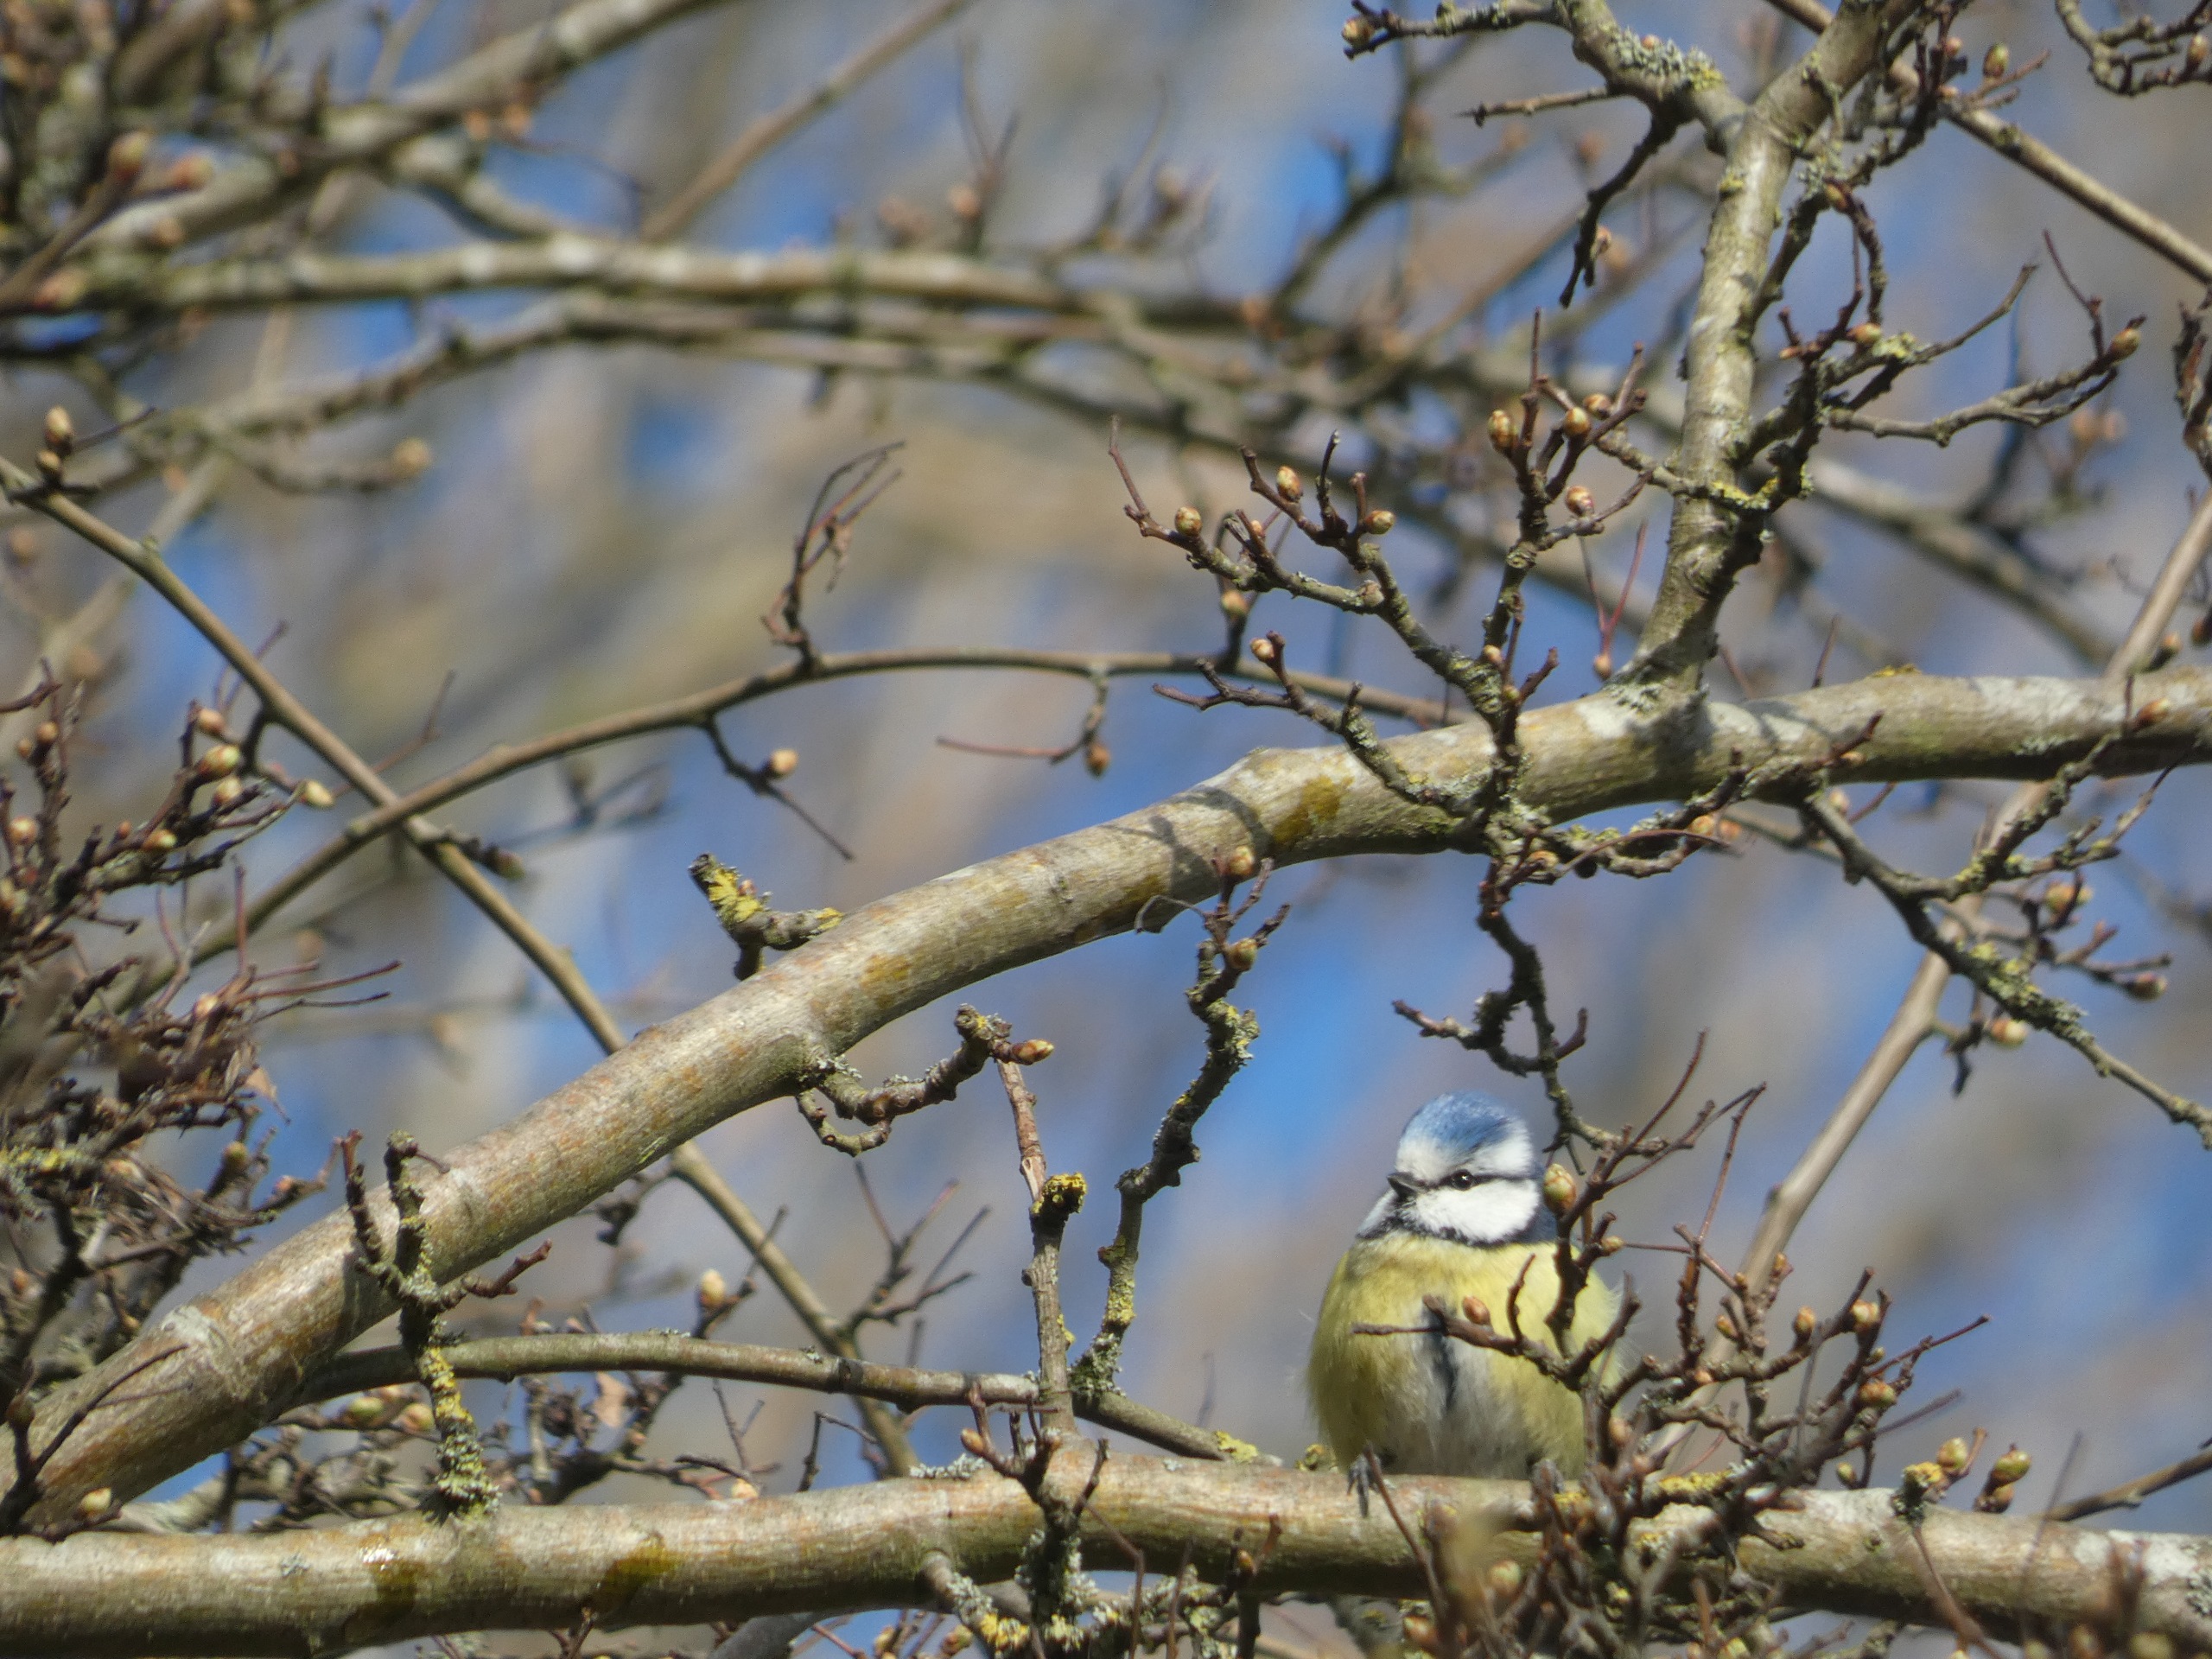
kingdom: Animalia
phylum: Chordata
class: Aves
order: Passeriformes
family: Paridae
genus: Cyanistes
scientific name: Cyanistes caeruleus
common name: Blåmejse
